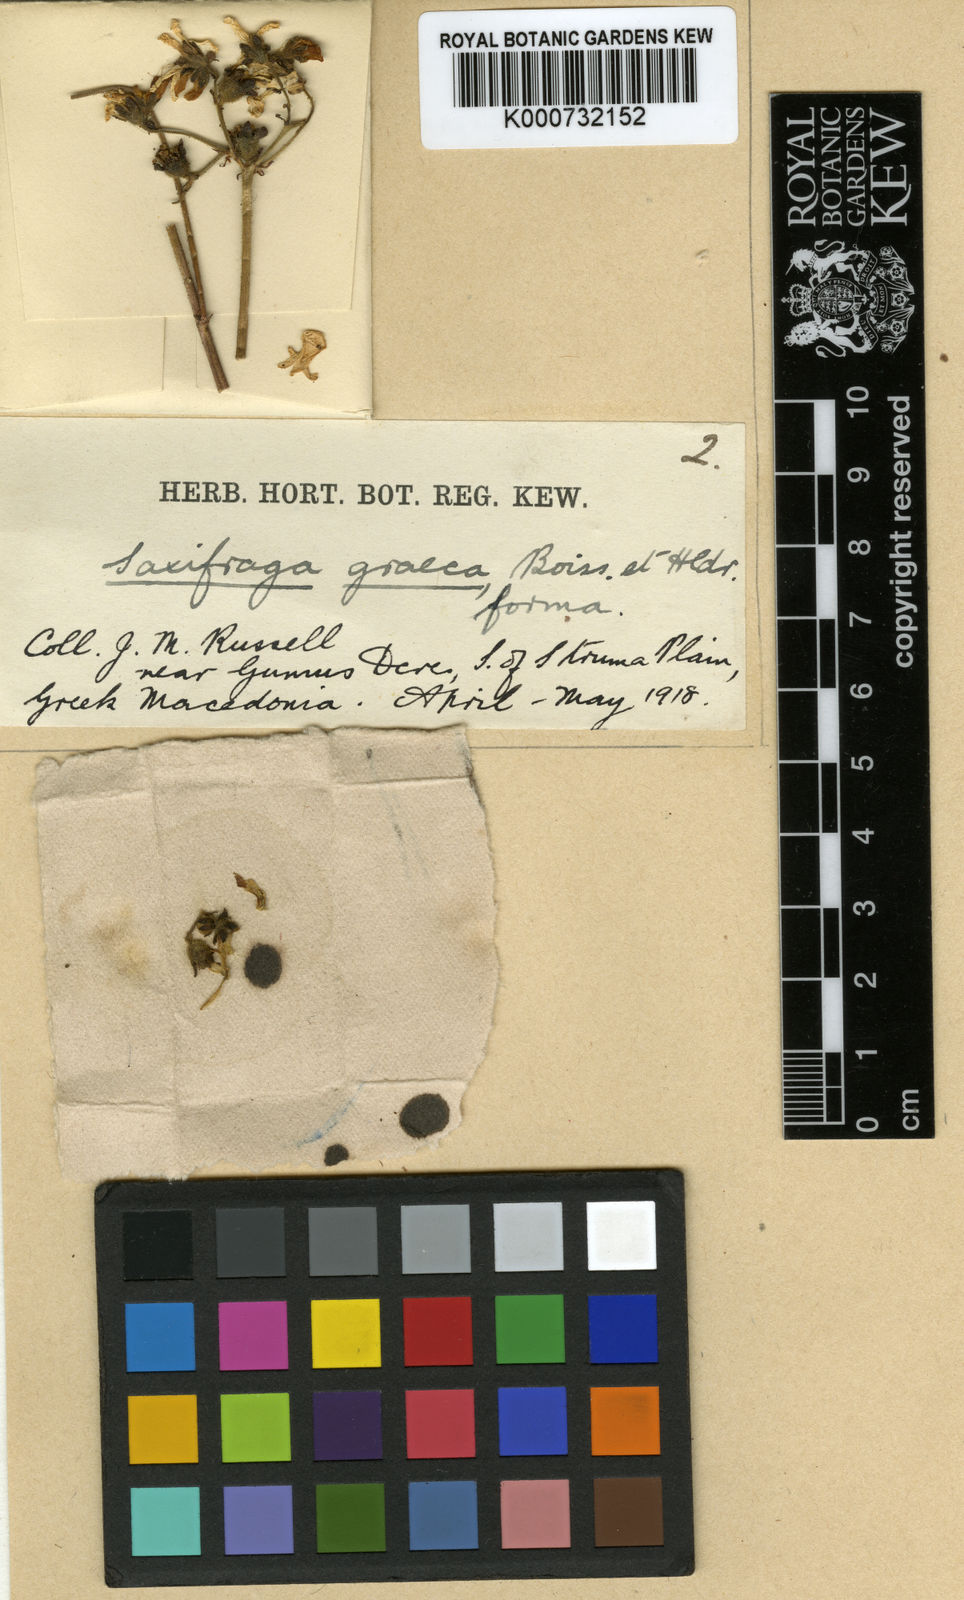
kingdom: Plantae
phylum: Tracheophyta
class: Magnoliopsida
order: Saxifragales
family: Saxifragaceae
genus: Saxifraga
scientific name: Saxifraga carpetana
